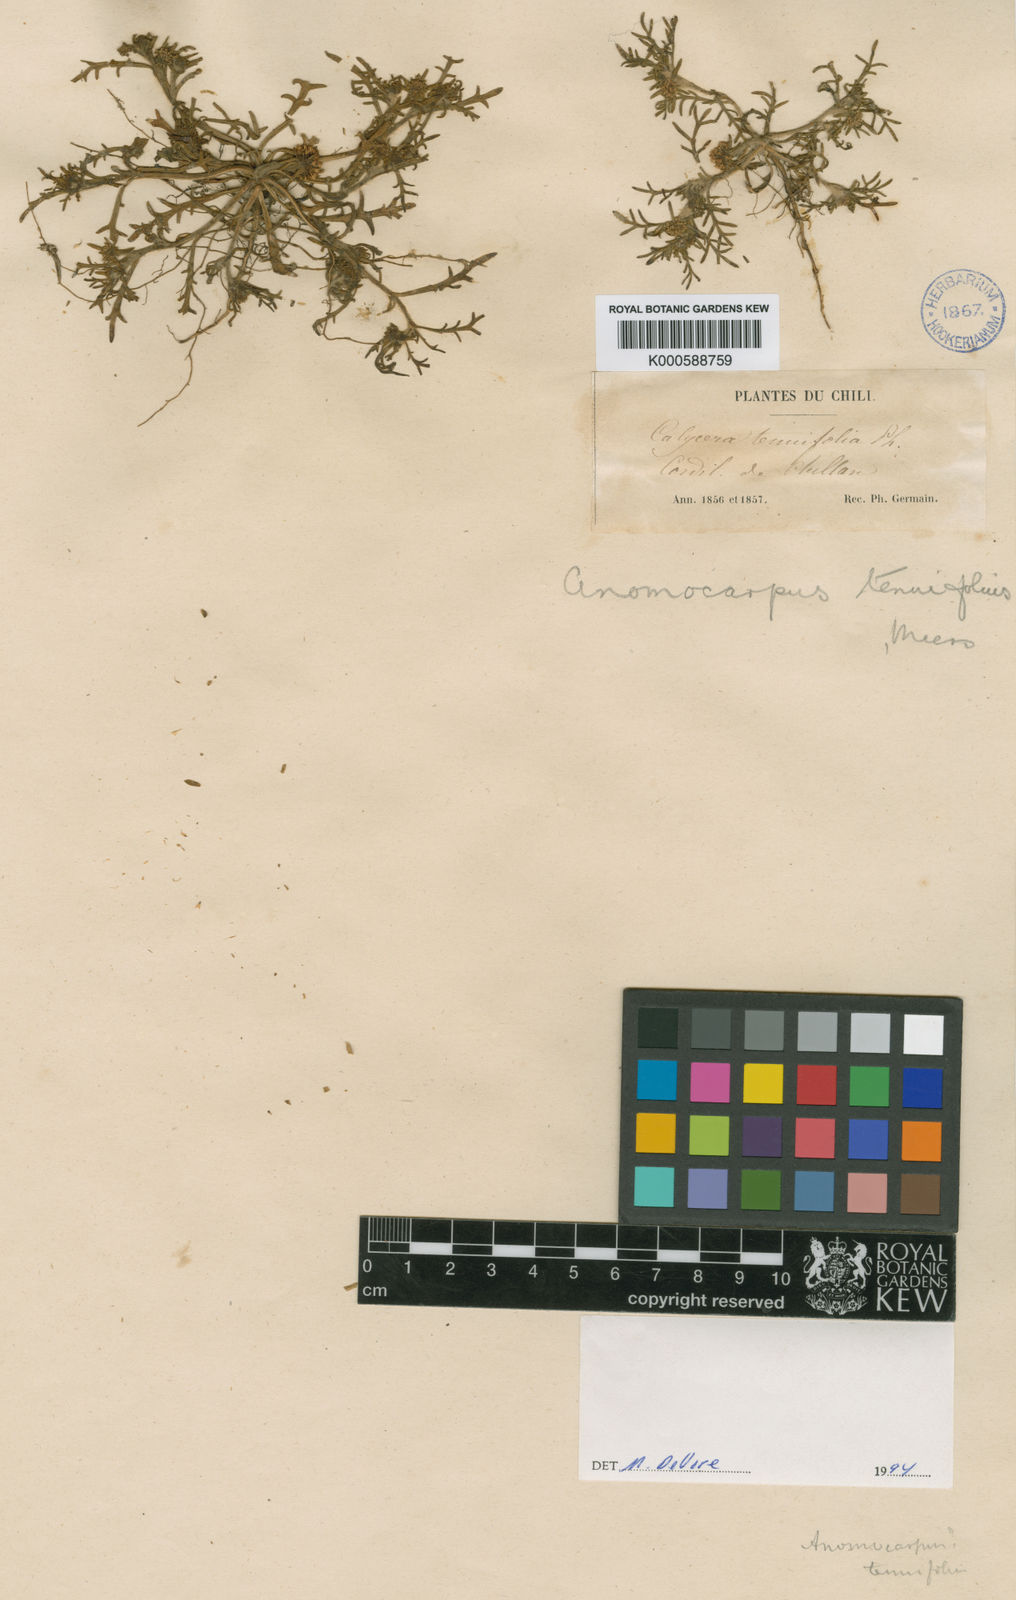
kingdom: Plantae
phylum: Tracheophyta
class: Magnoliopsida
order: Asterales
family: Calyceraceae
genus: Calycera
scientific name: Calycera
